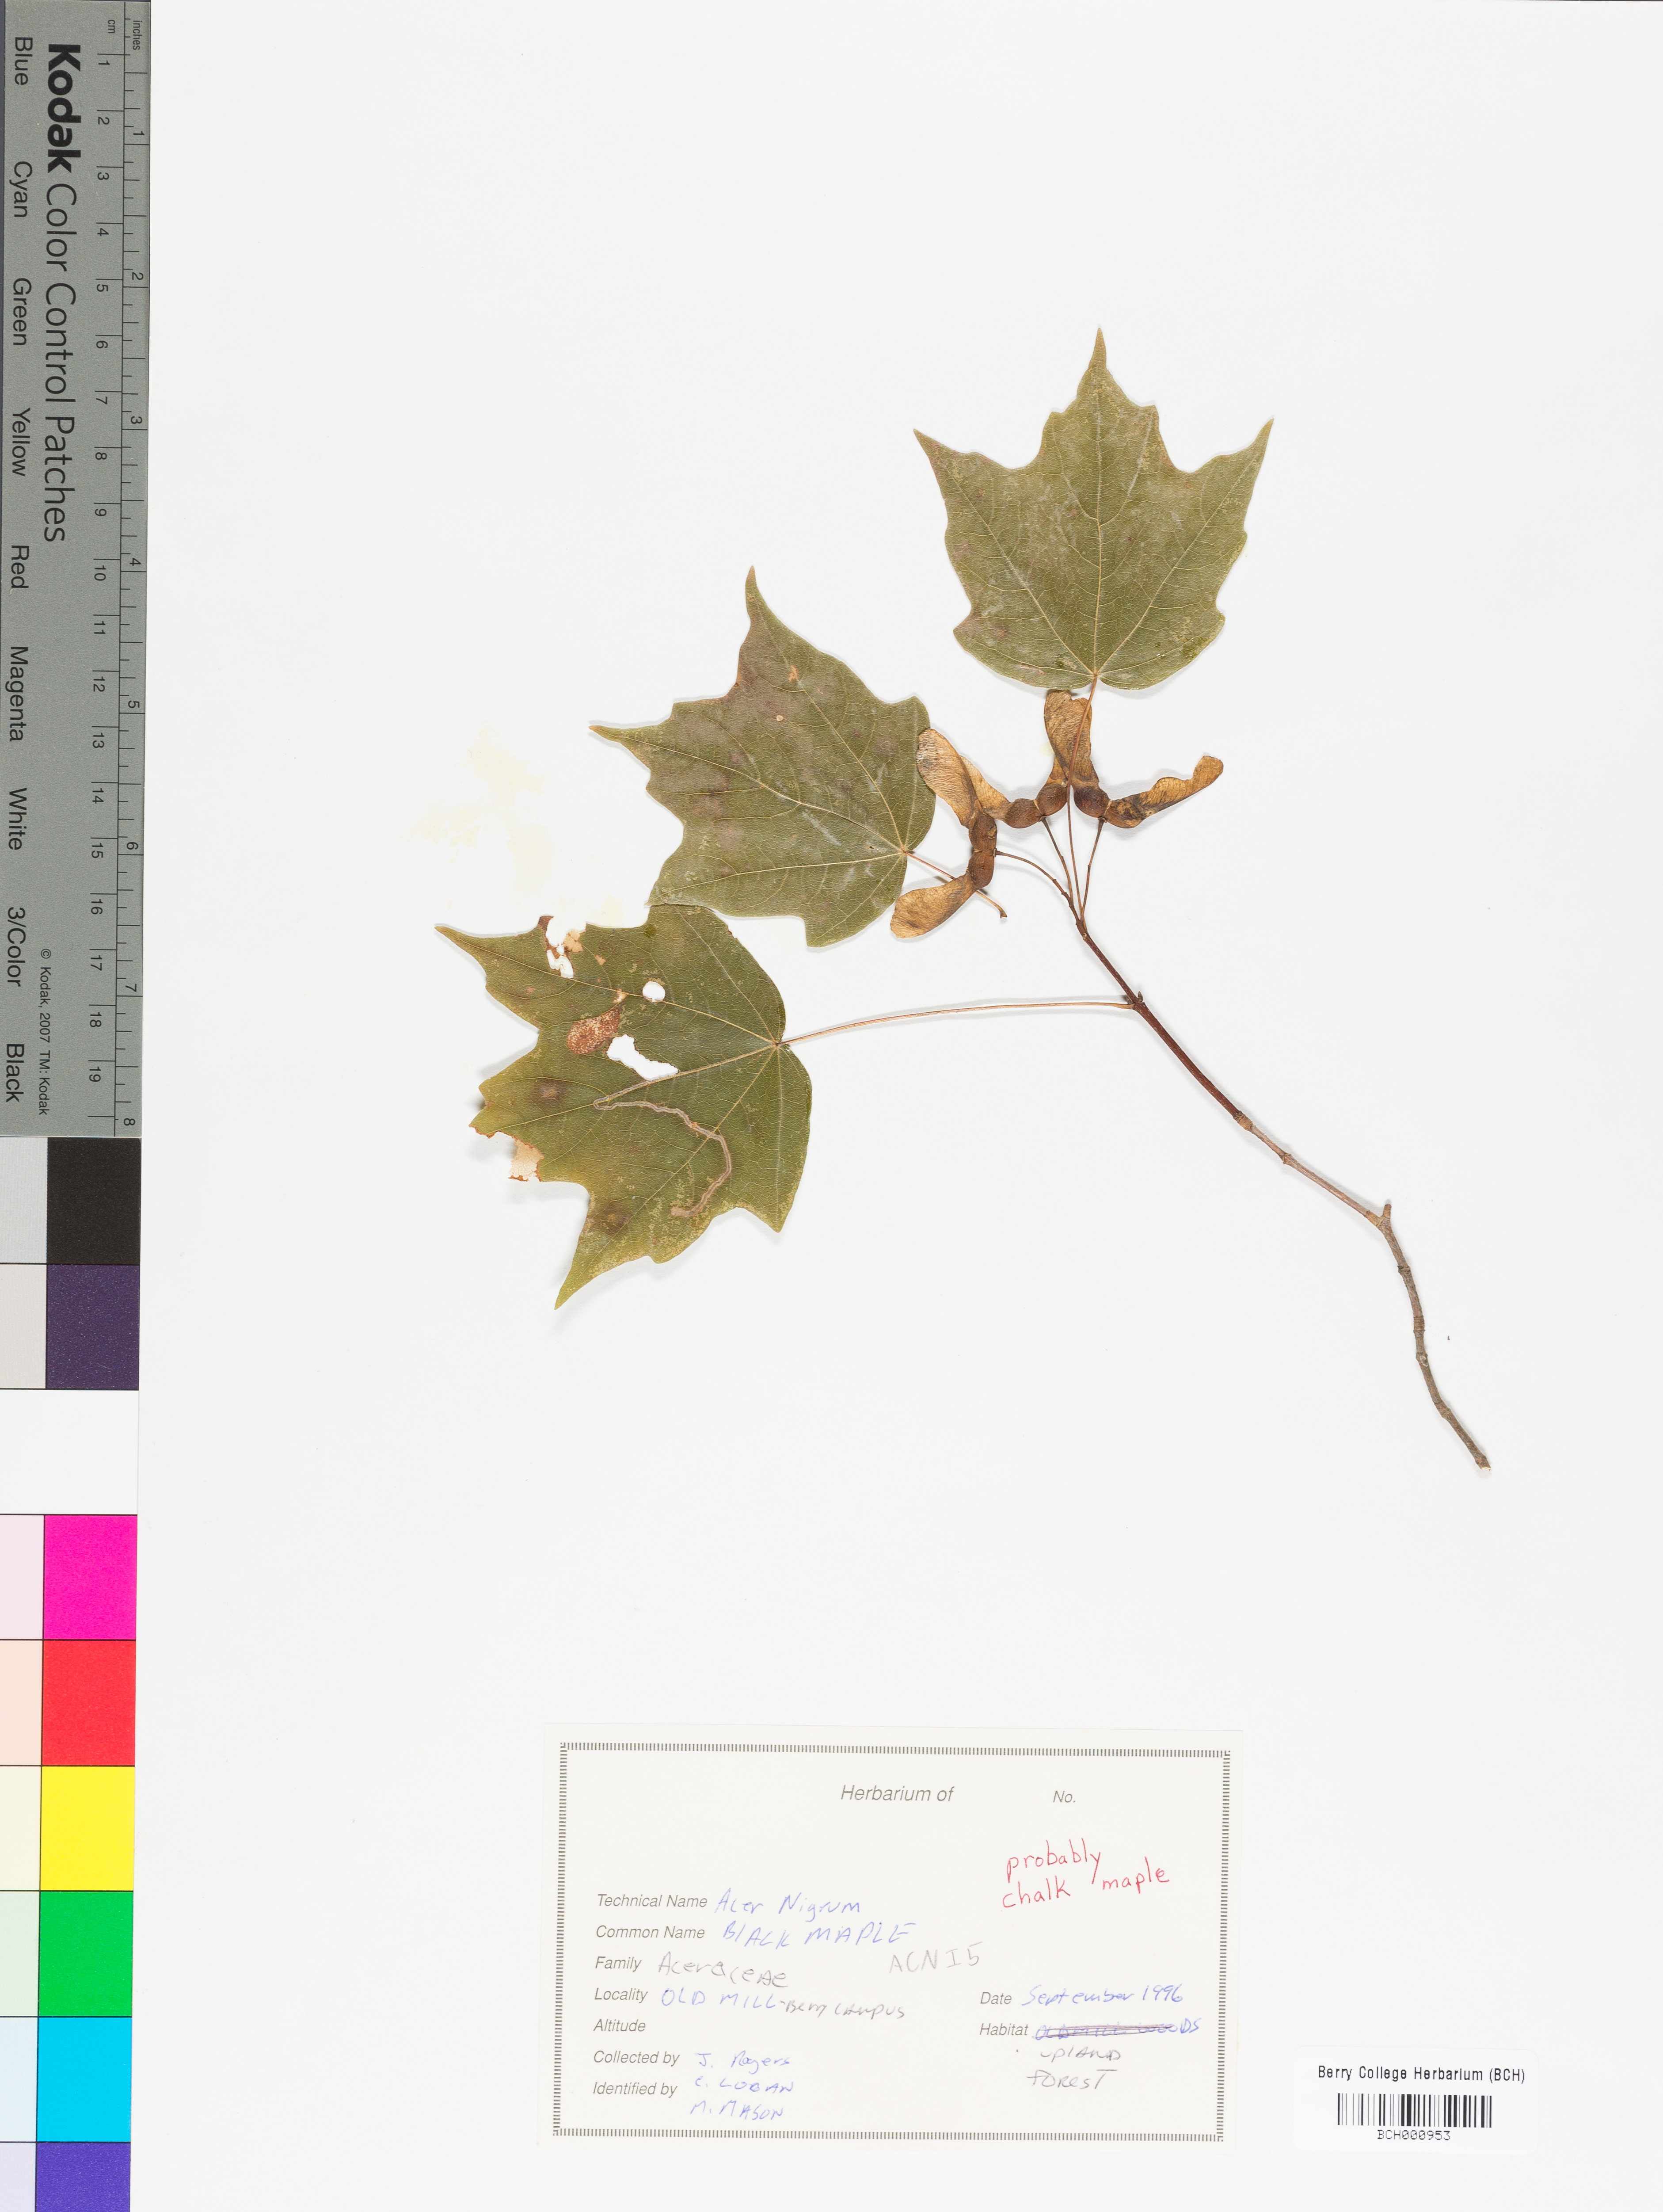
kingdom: Plantae
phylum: Tracheophyta
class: Magnoliopsida
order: Sapindales
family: Sapindaceae
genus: Acer
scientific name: Acer nigrum
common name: Black maple
